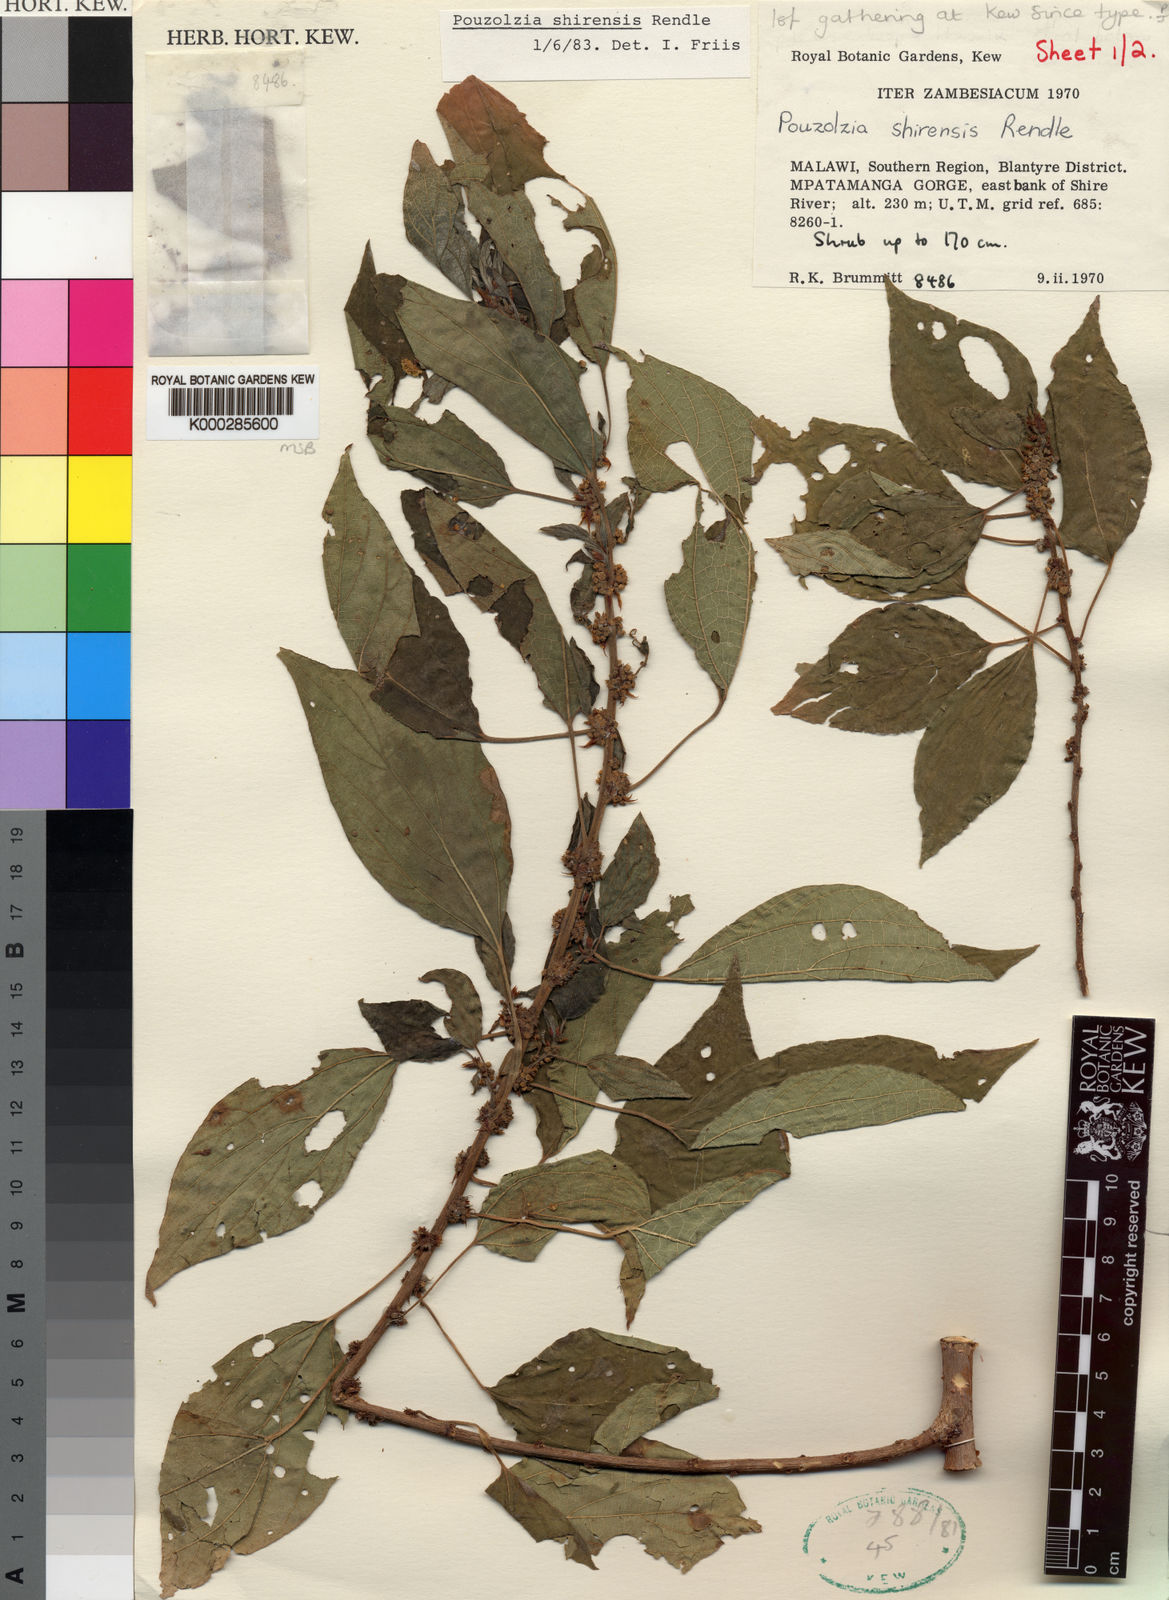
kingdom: Plantae
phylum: Tracheophyta
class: Magnoliopsida
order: Rosales
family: Urticaceae
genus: Pouzolzia
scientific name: Pouzolzia mixta
